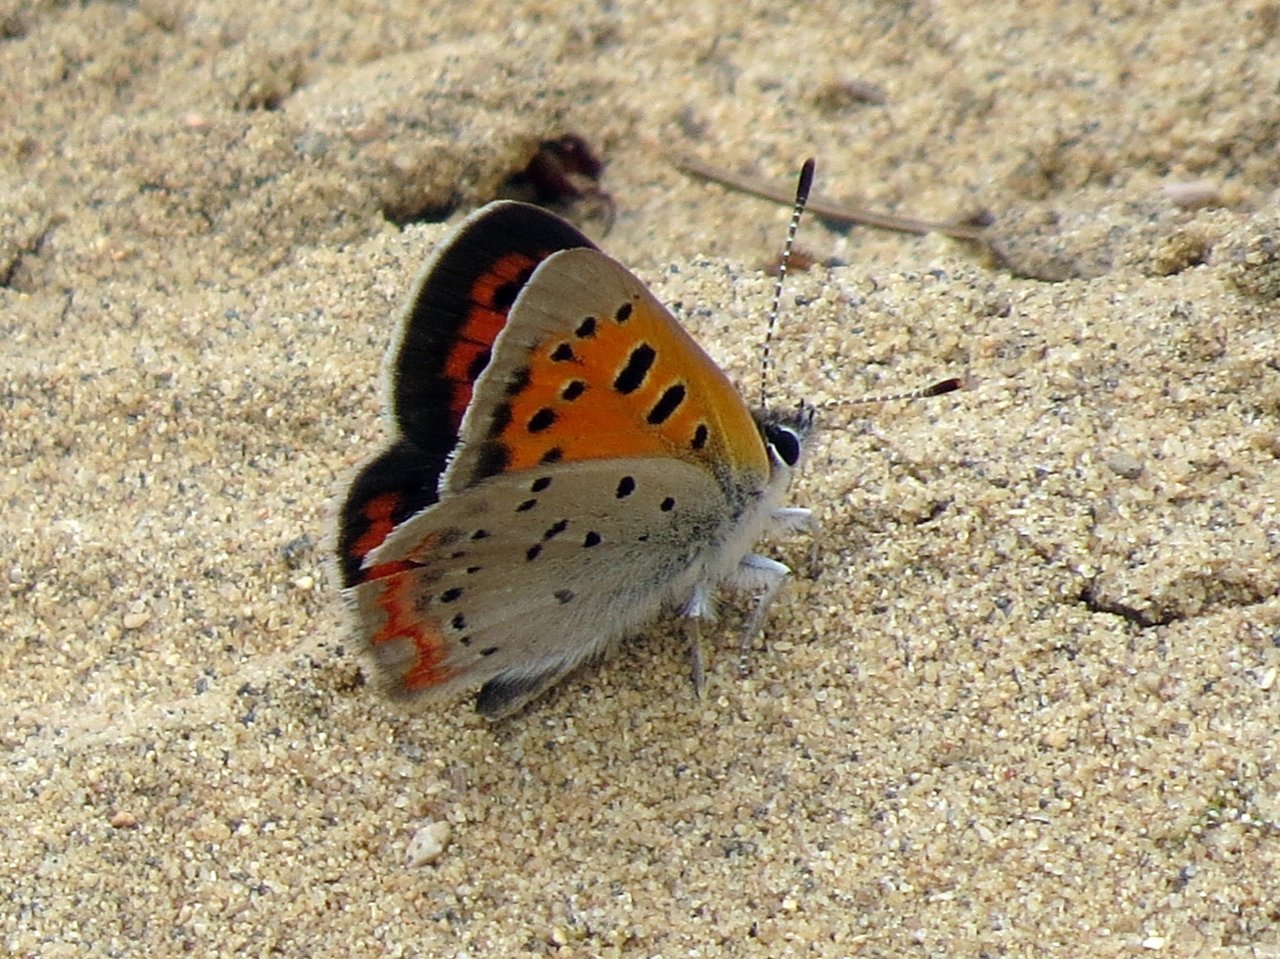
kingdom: Animalia
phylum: Arthropoda
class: Insecta
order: Lepidoptera
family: Lycaenidae
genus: Lycaena
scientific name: Lycaena phlaeas
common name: American Copper
